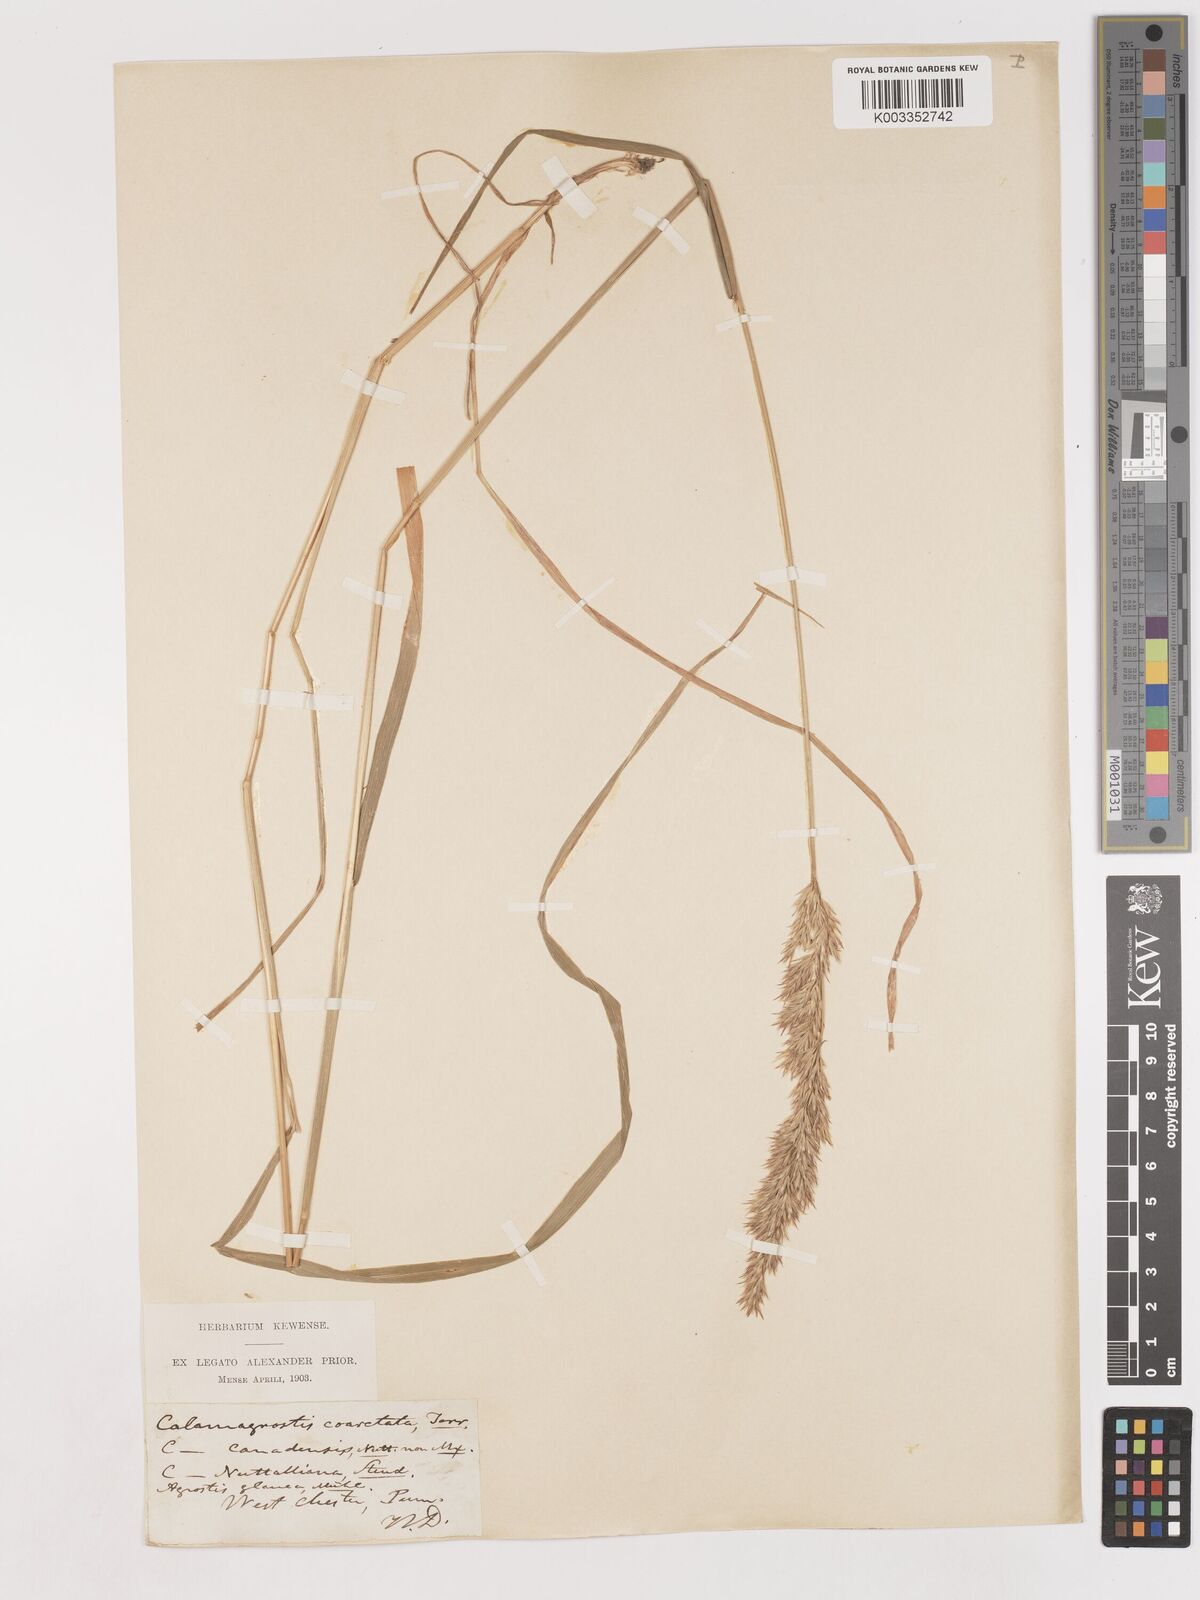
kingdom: Plantae
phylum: Tracheophyta
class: Liliopsida
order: Poales
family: Poaceae
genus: Calamagrostis
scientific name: Calamagrostis canadensis
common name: Canada bluejoint
